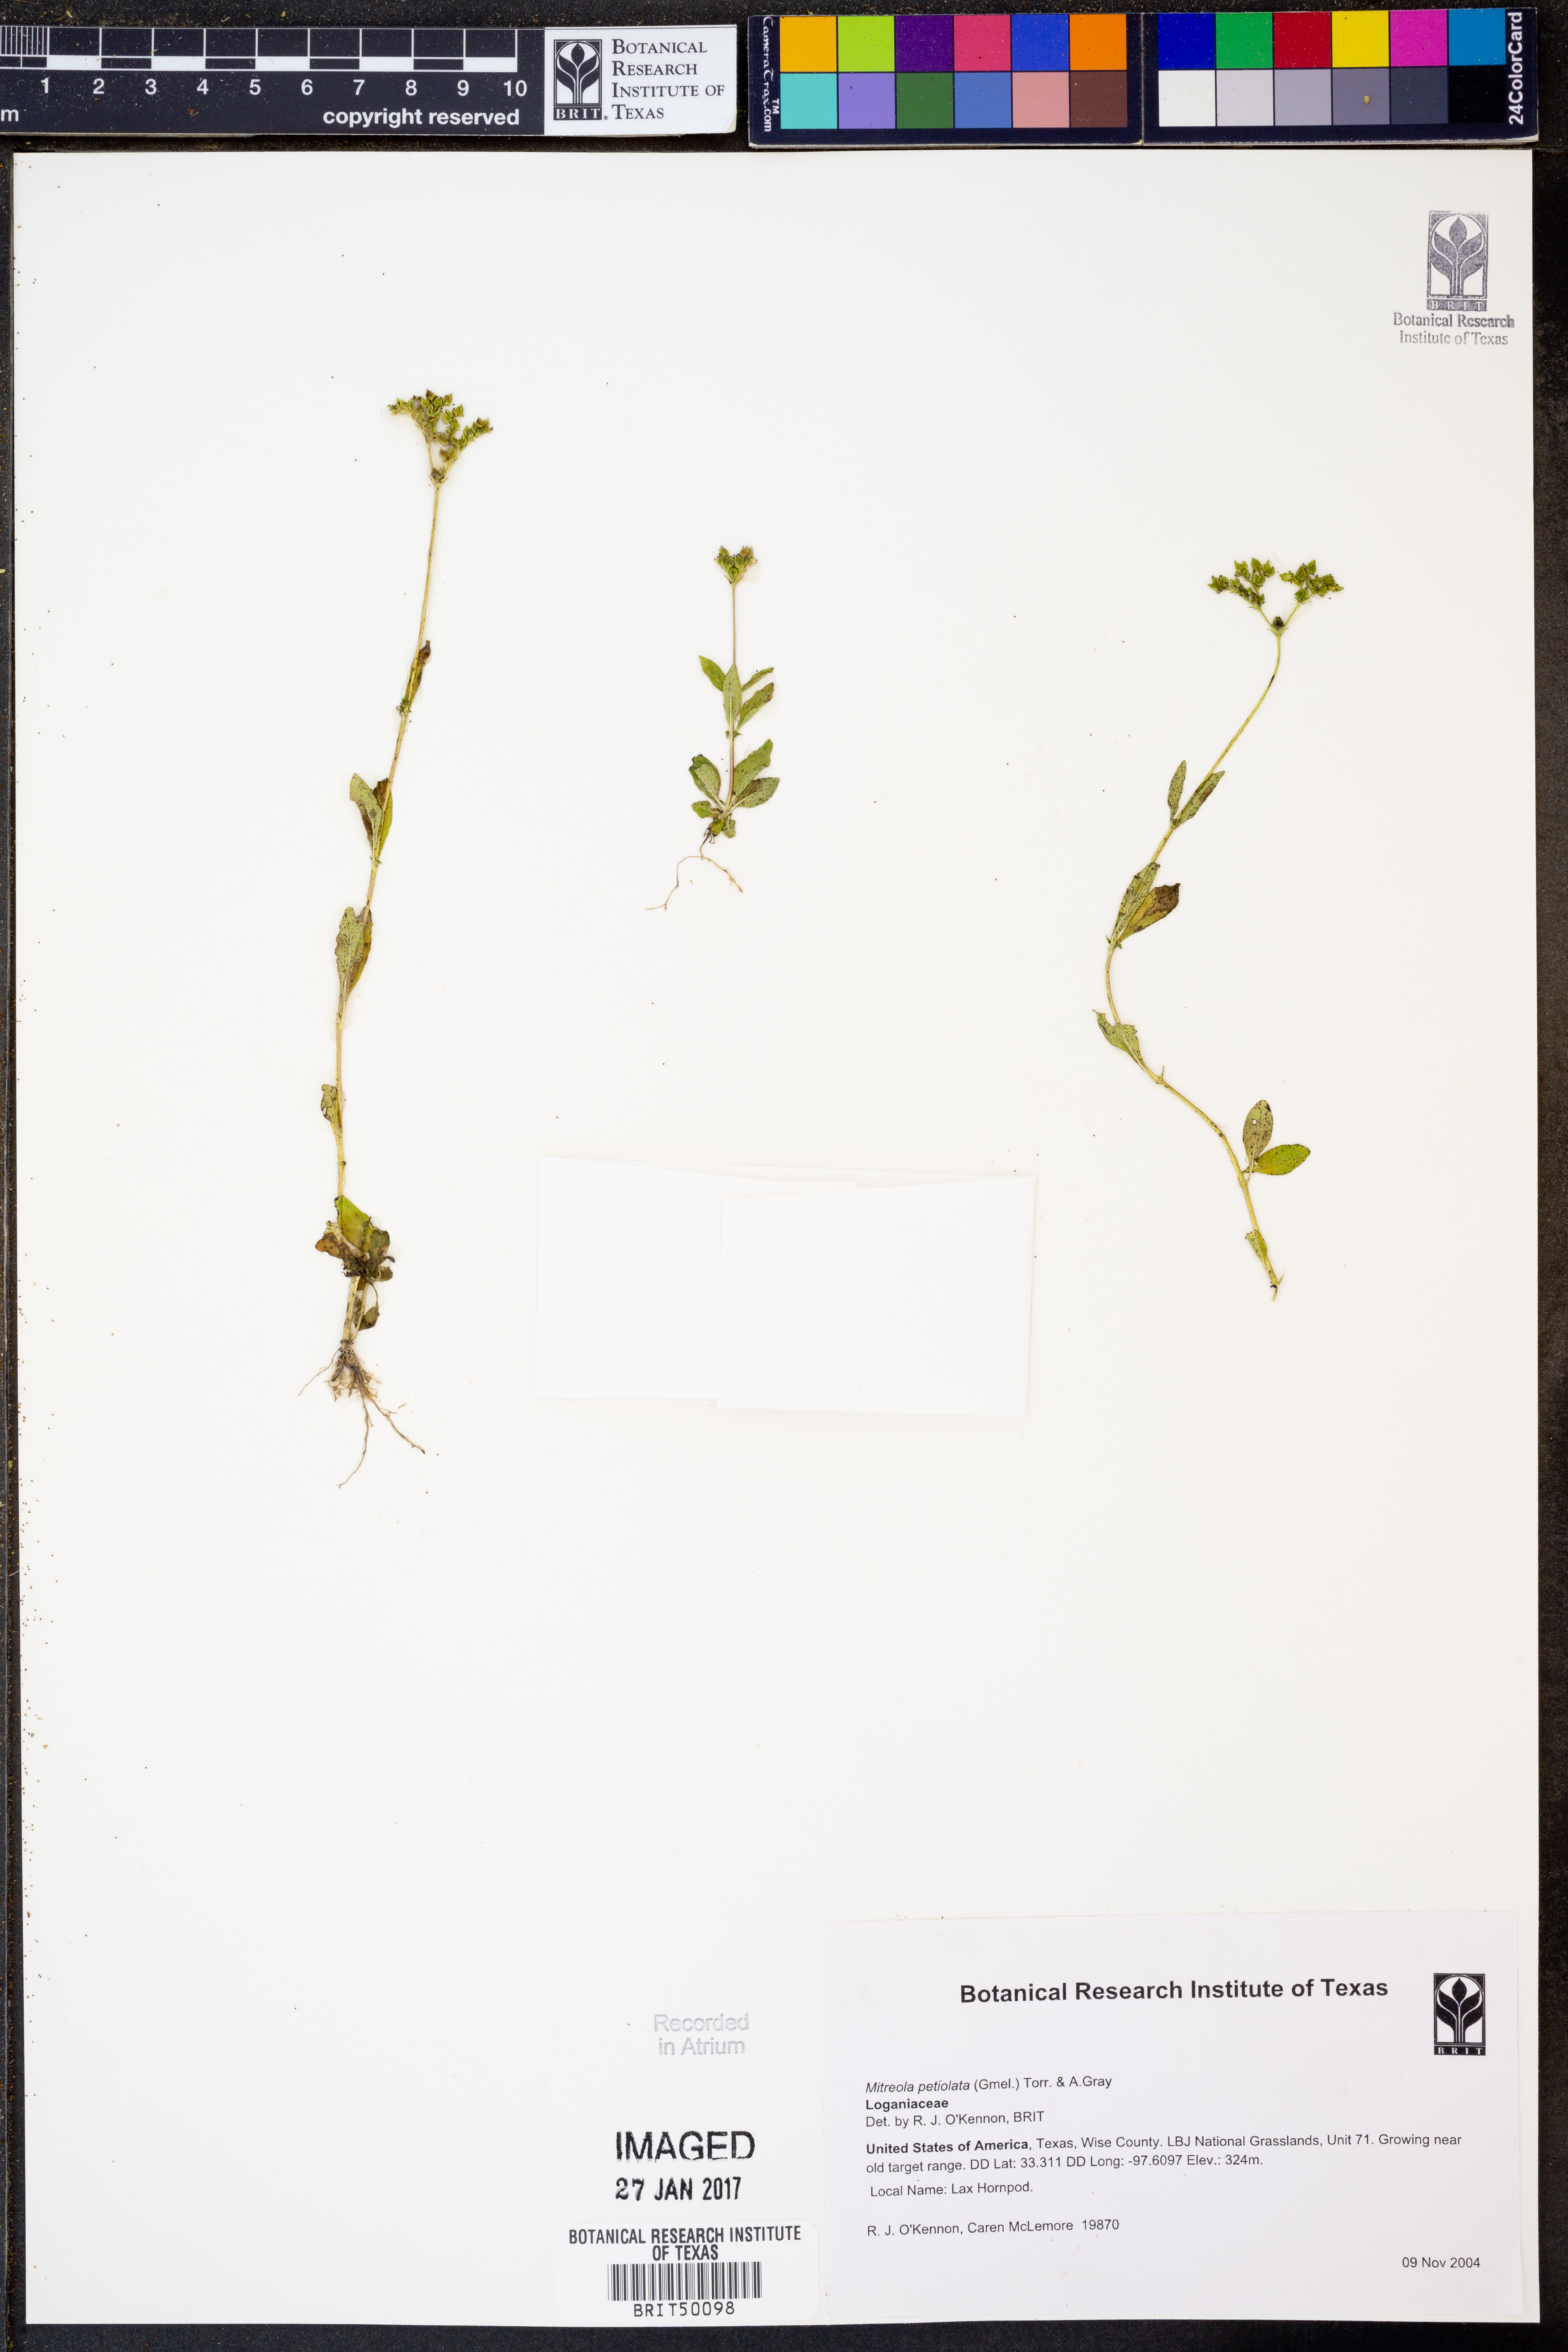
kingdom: Plantae
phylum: Tracheophyta
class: Magnoliopsida
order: Gentianales
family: Loganiaceae
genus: Mitreola
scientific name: Mitreola petiolata
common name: Lax hornpod
